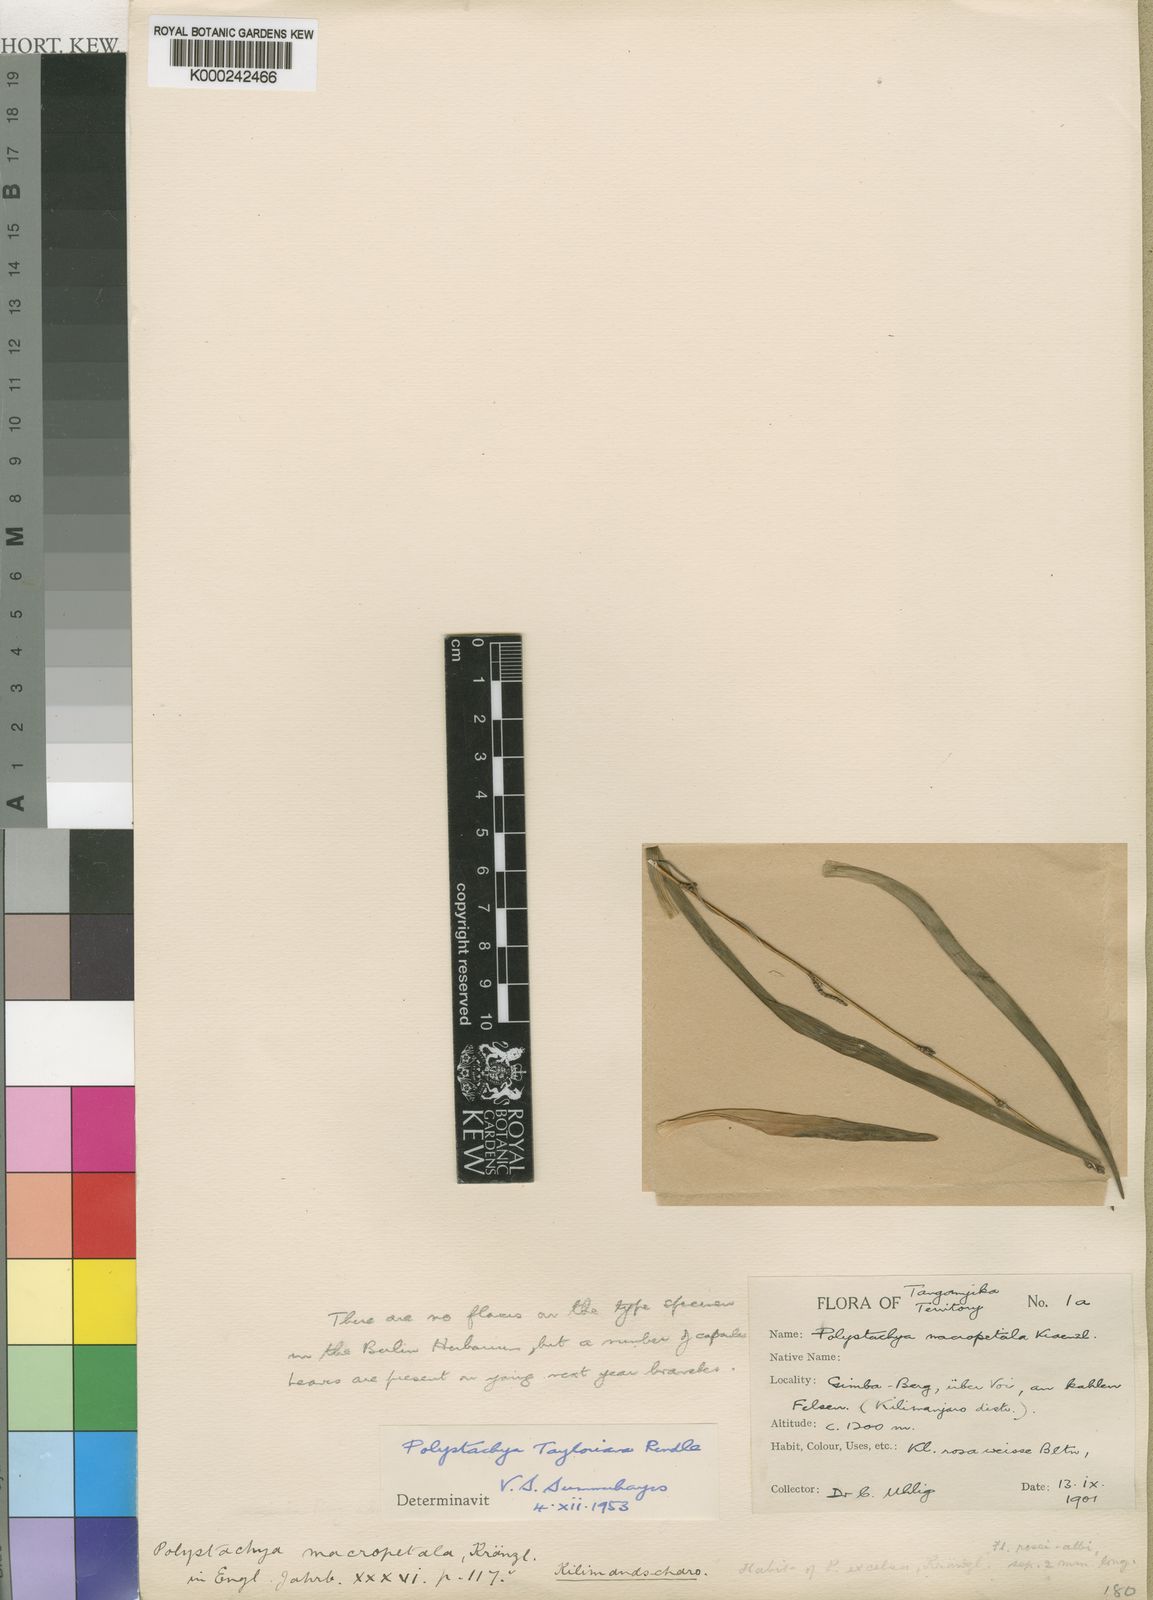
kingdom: Plantae
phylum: Tracheophyta
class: Liliopsida
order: Asparagales
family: Orchidaceae
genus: Polystachya
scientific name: Polystachya dendrobiiflora
